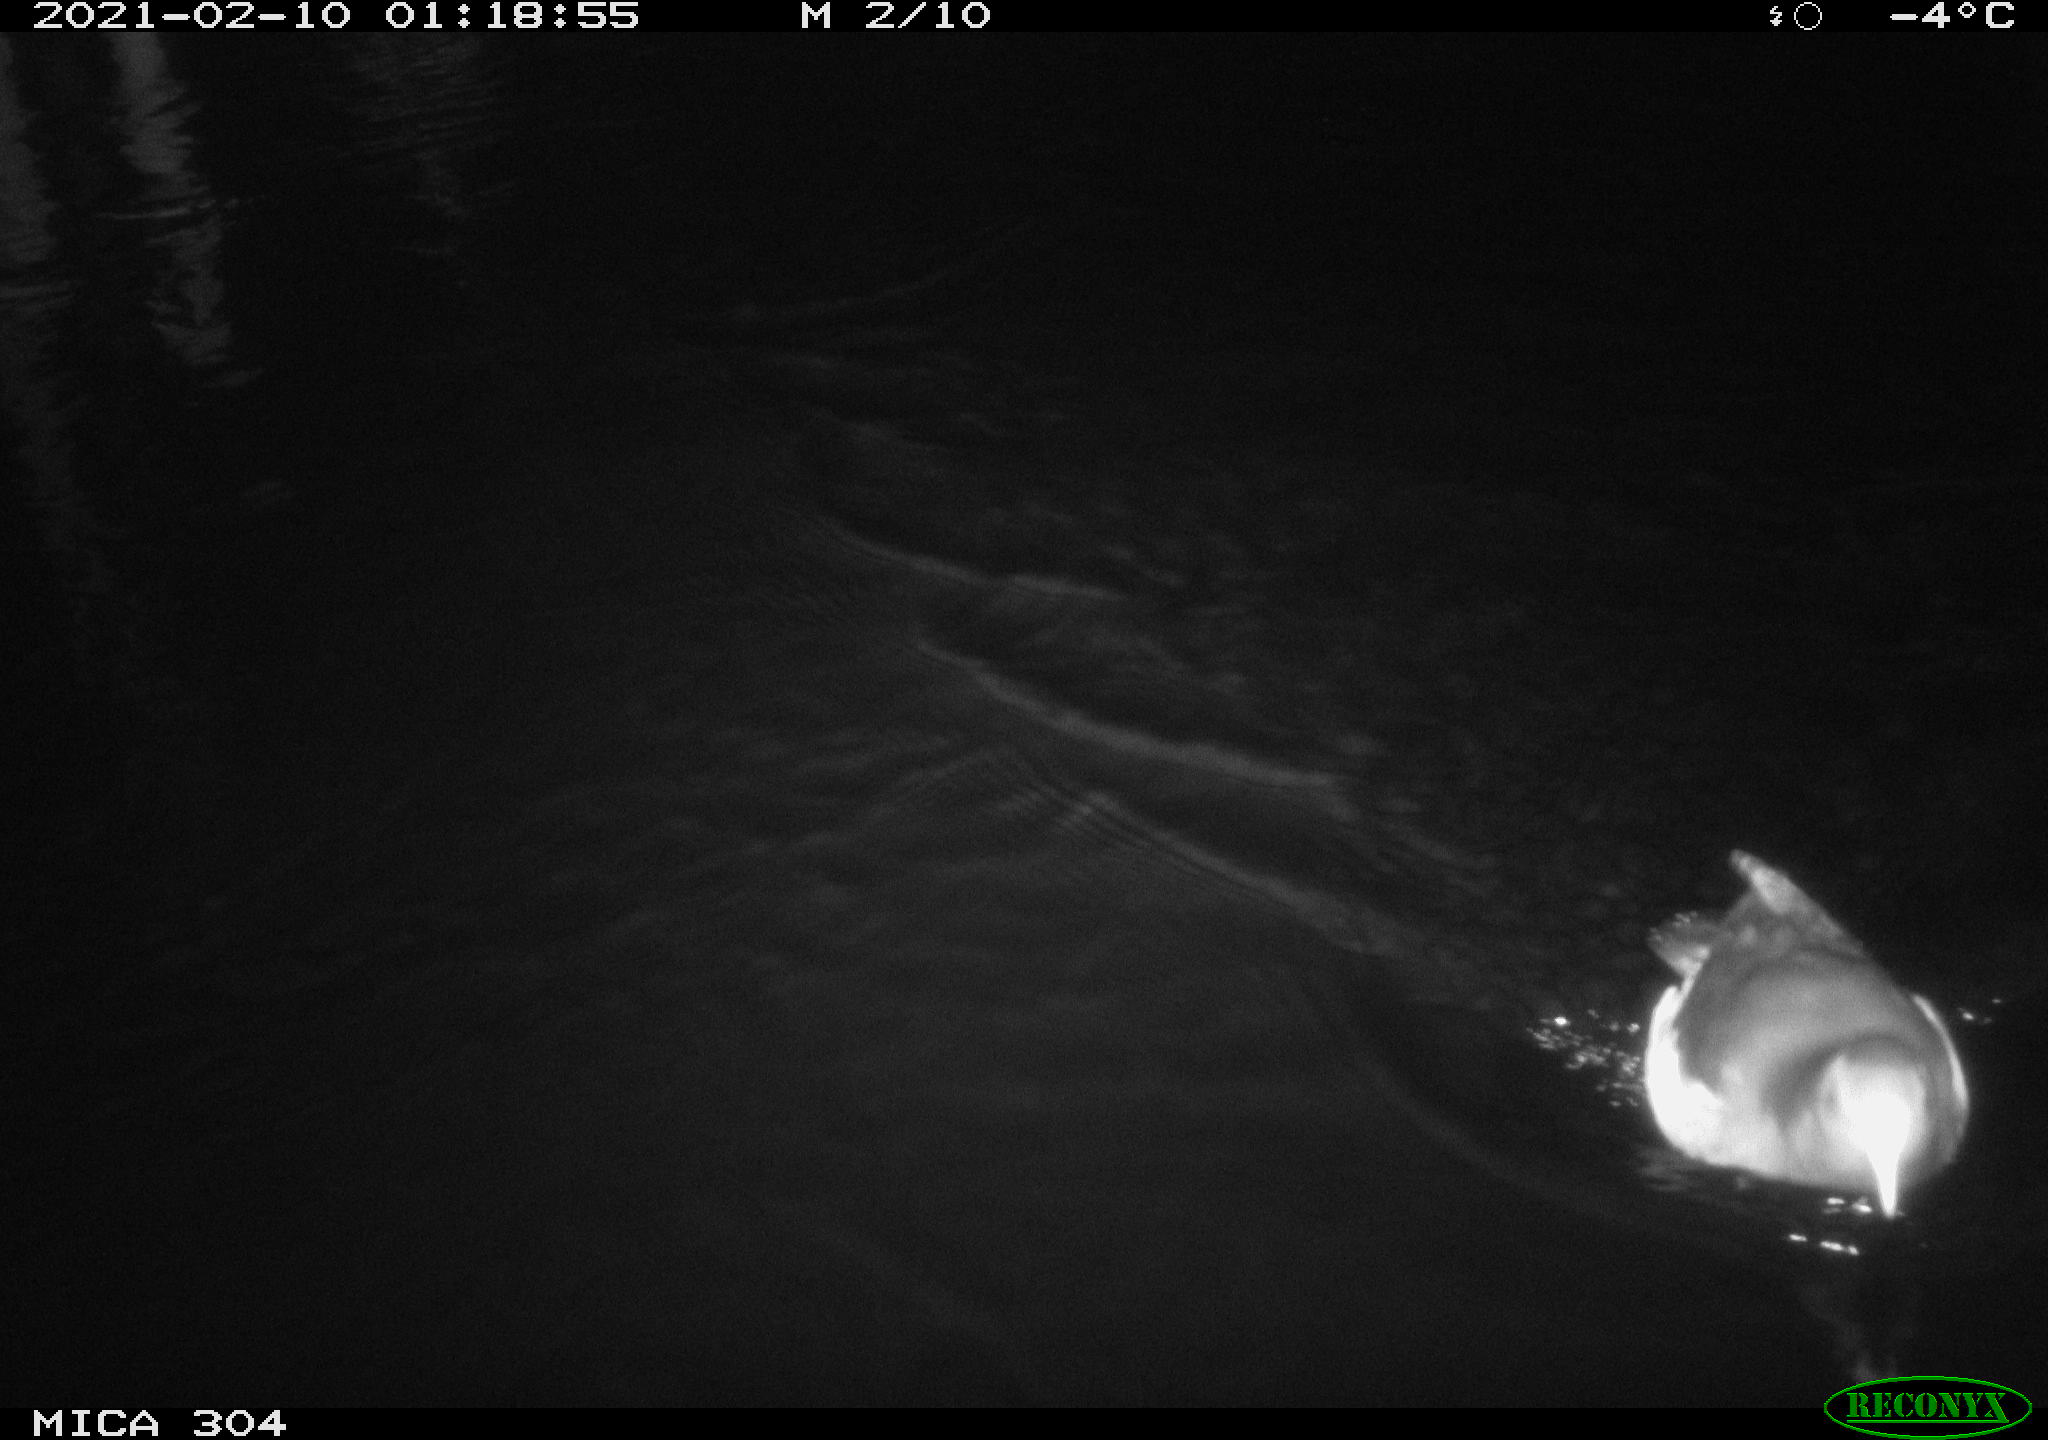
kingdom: Animalia
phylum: Chordata
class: Aves
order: Gruiformes
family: Rallidae
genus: Gallinula
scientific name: Gallinula chloropus
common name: Common moorhen
